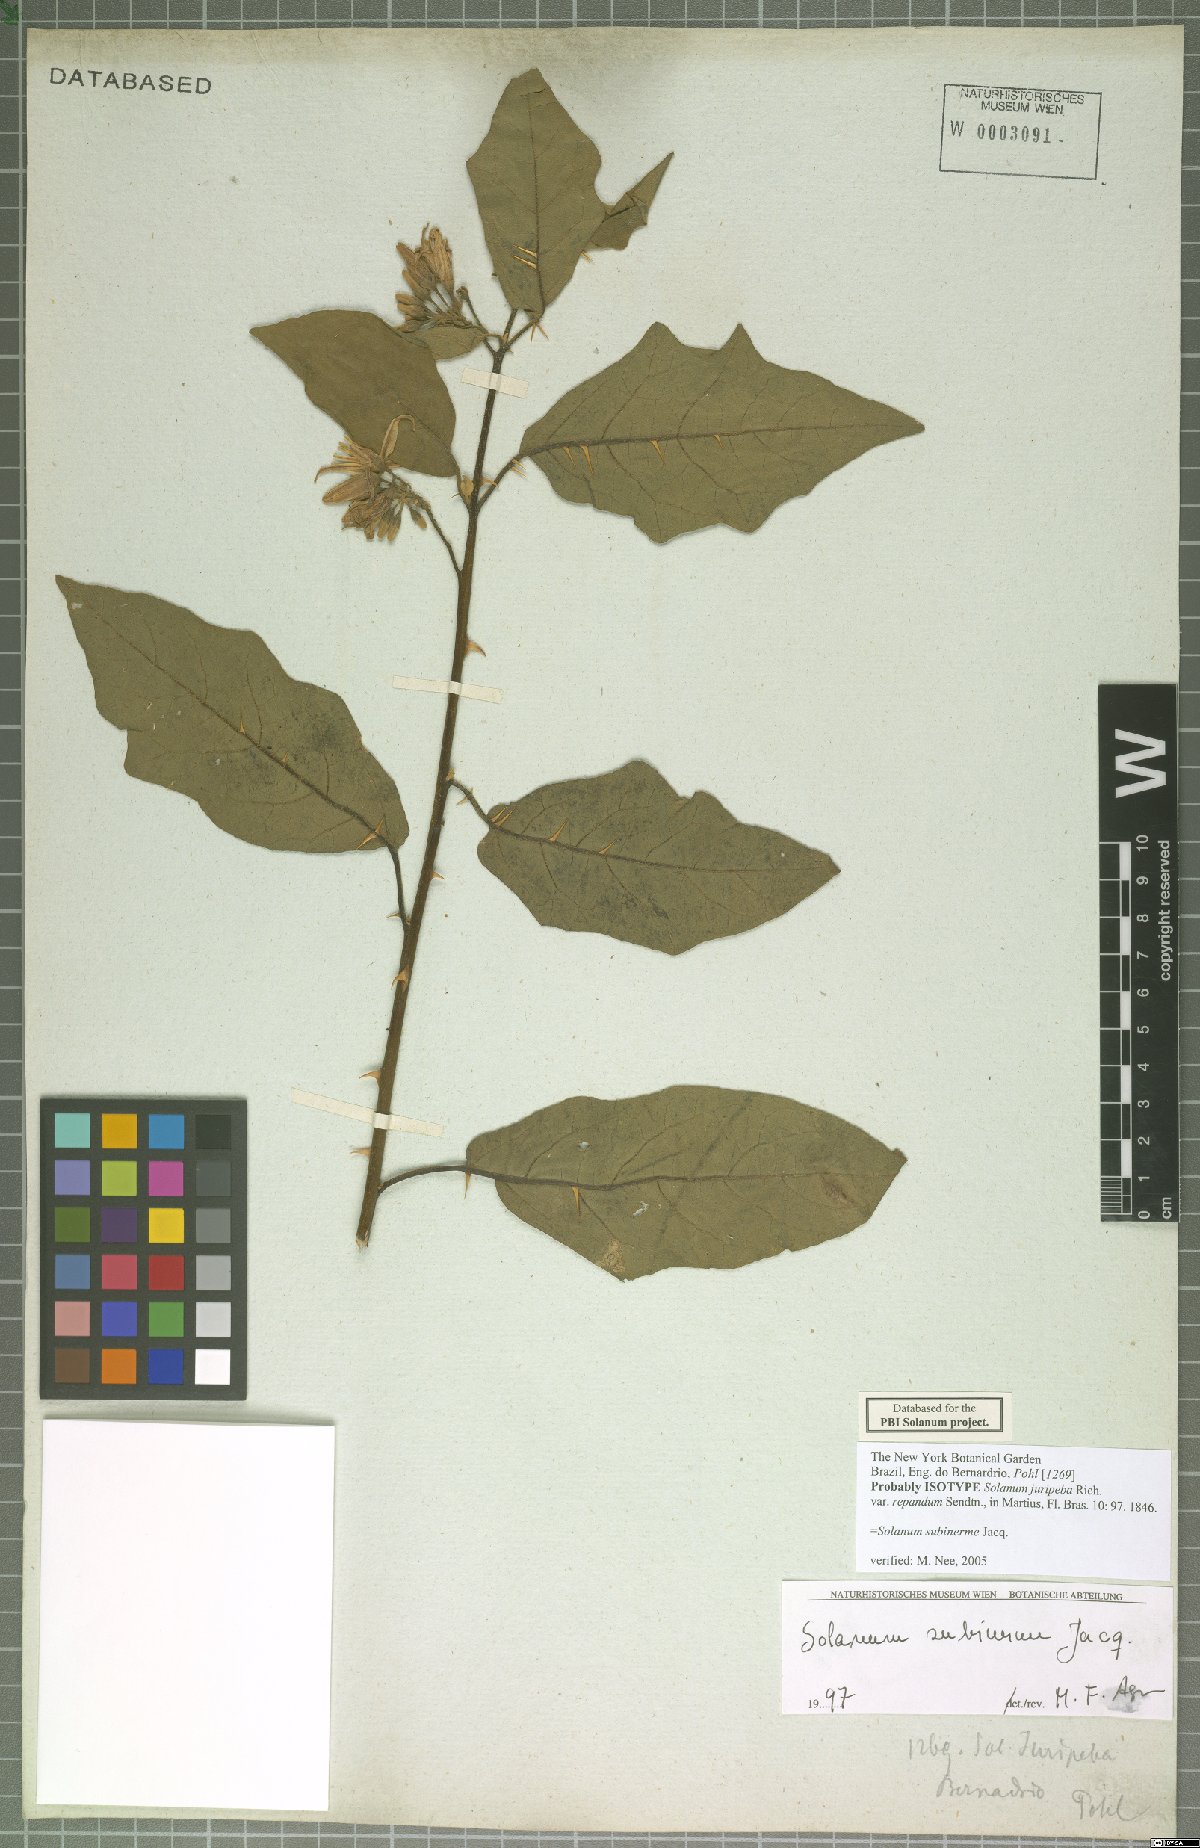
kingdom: Plantae
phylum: Tracheophyta
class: Magnoliopsida
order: Solanales
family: Solanaceae
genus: Solanum
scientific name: Solanum subinerme
